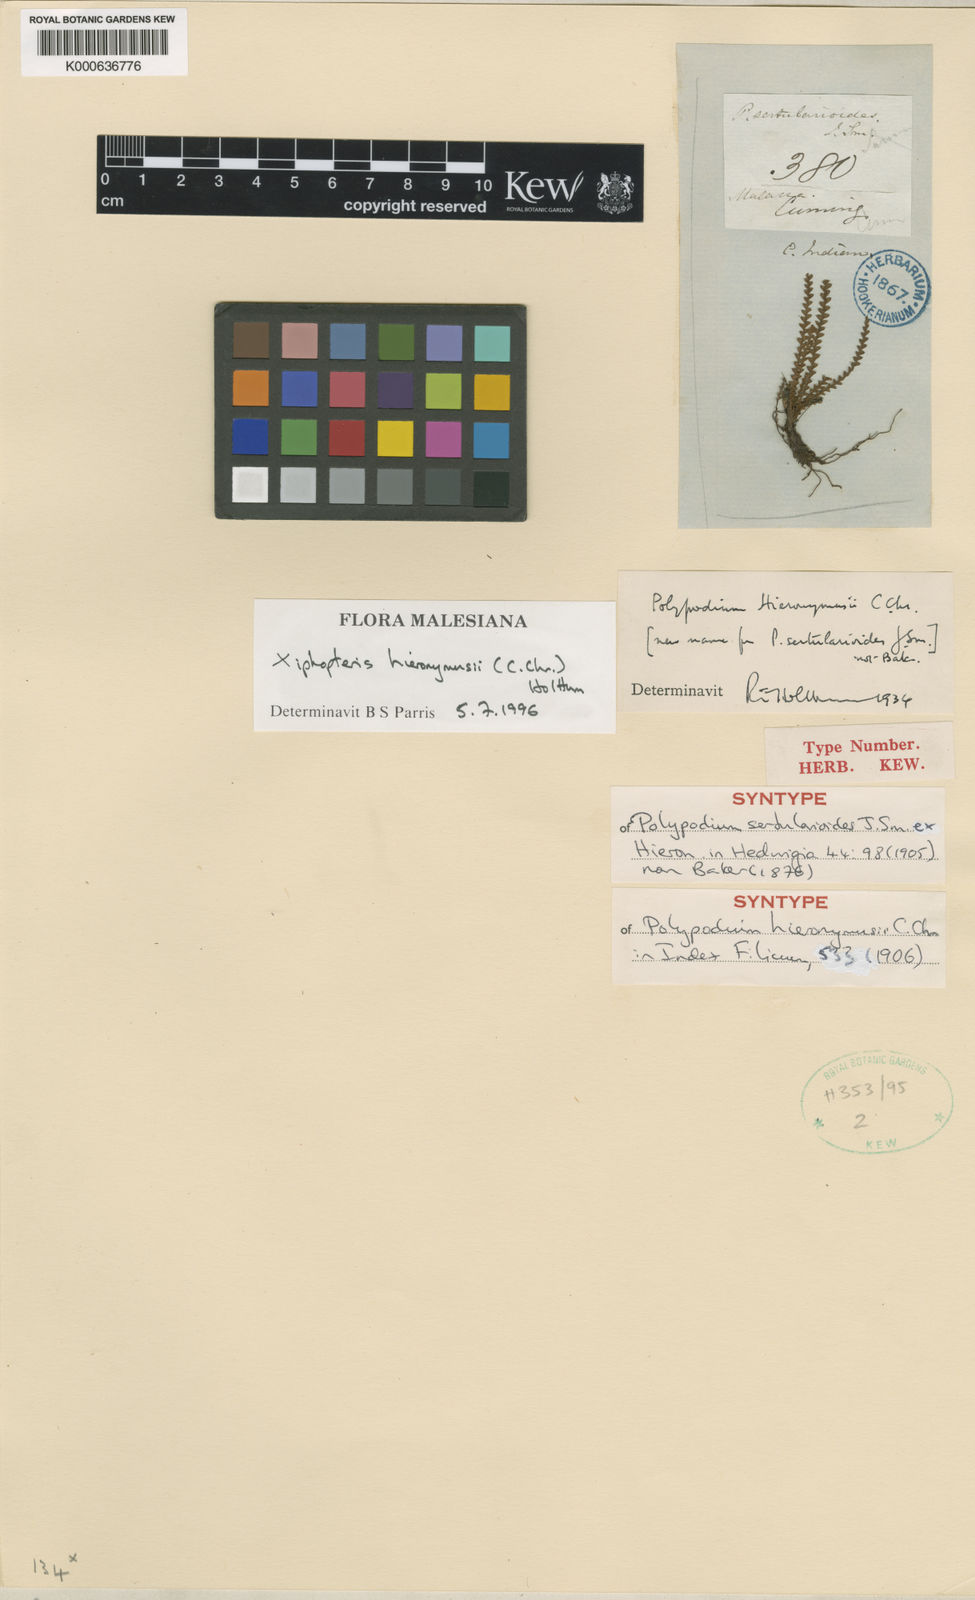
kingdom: Plantae
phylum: Tracheophyta
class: Polypodiopsida
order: Polypodiales
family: Polypodiaceae
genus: Xiphopterella
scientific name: Xiphopterella hieronymusii
